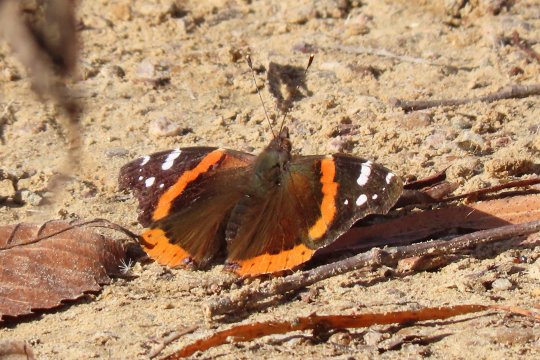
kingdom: Animalia
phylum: Arthropoda
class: Insecta
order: Lepidoptera
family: Nymphalidae
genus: Vanessa
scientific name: Vanessa atalanta
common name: Red Admiral
